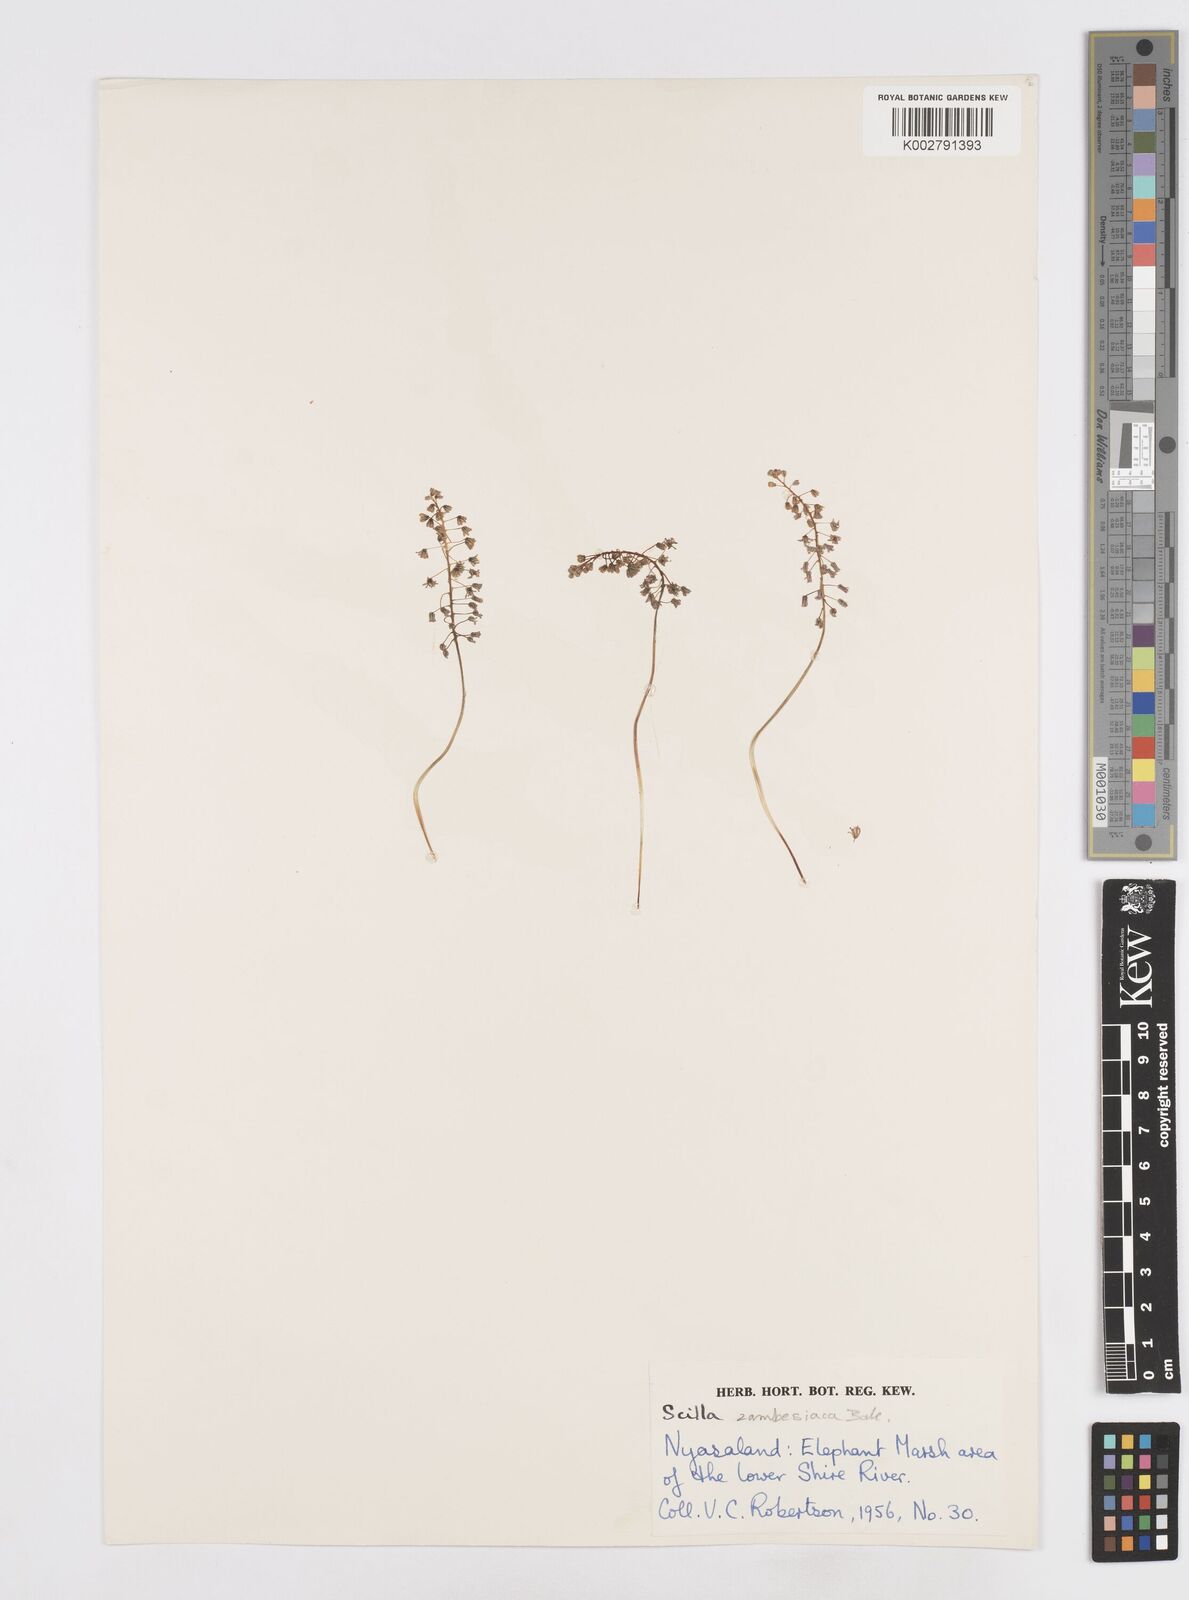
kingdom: Plantae
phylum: Tracheophyta
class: Liliopsida
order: Asparagales
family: Asparagaceae
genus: Ledebouria
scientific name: Ledebouria zambesiaca
